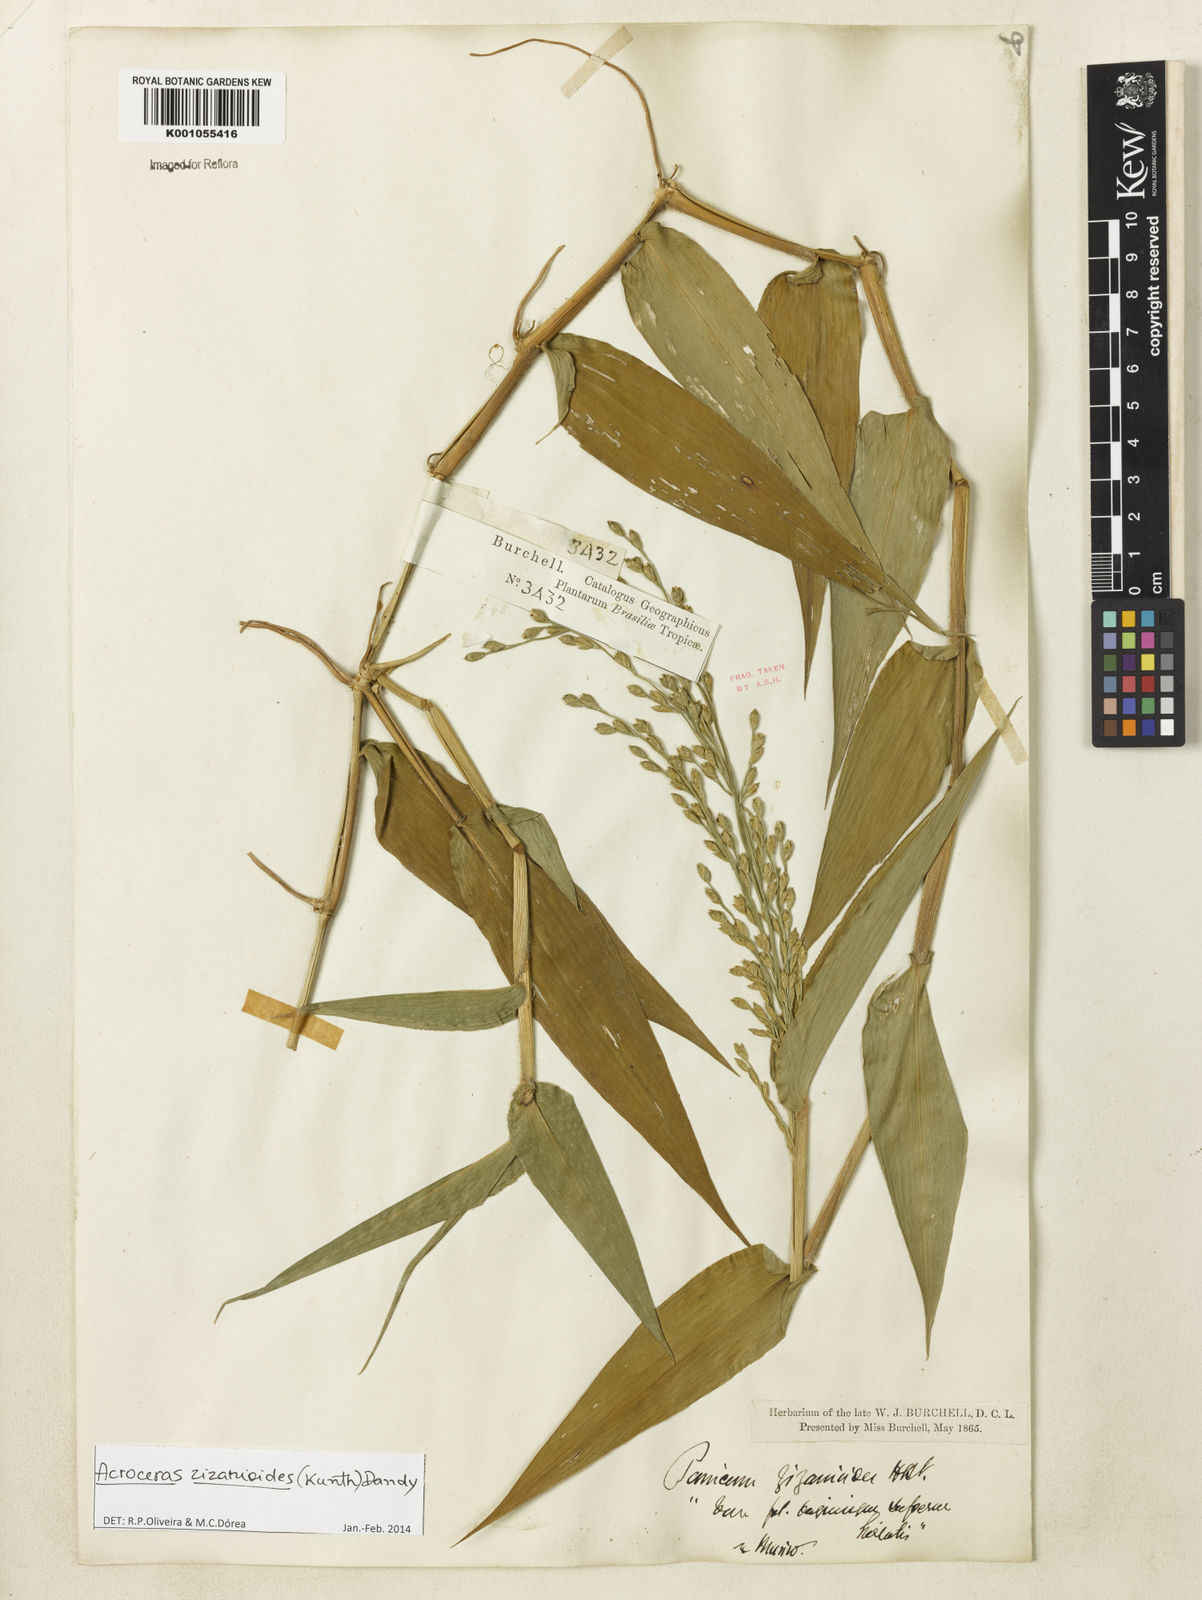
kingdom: Plantae
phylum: Tracheophyta
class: Liliopsida
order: Poales
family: Poaceae
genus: Acroceras
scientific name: Acroceras zizanioides
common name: Oat grass
